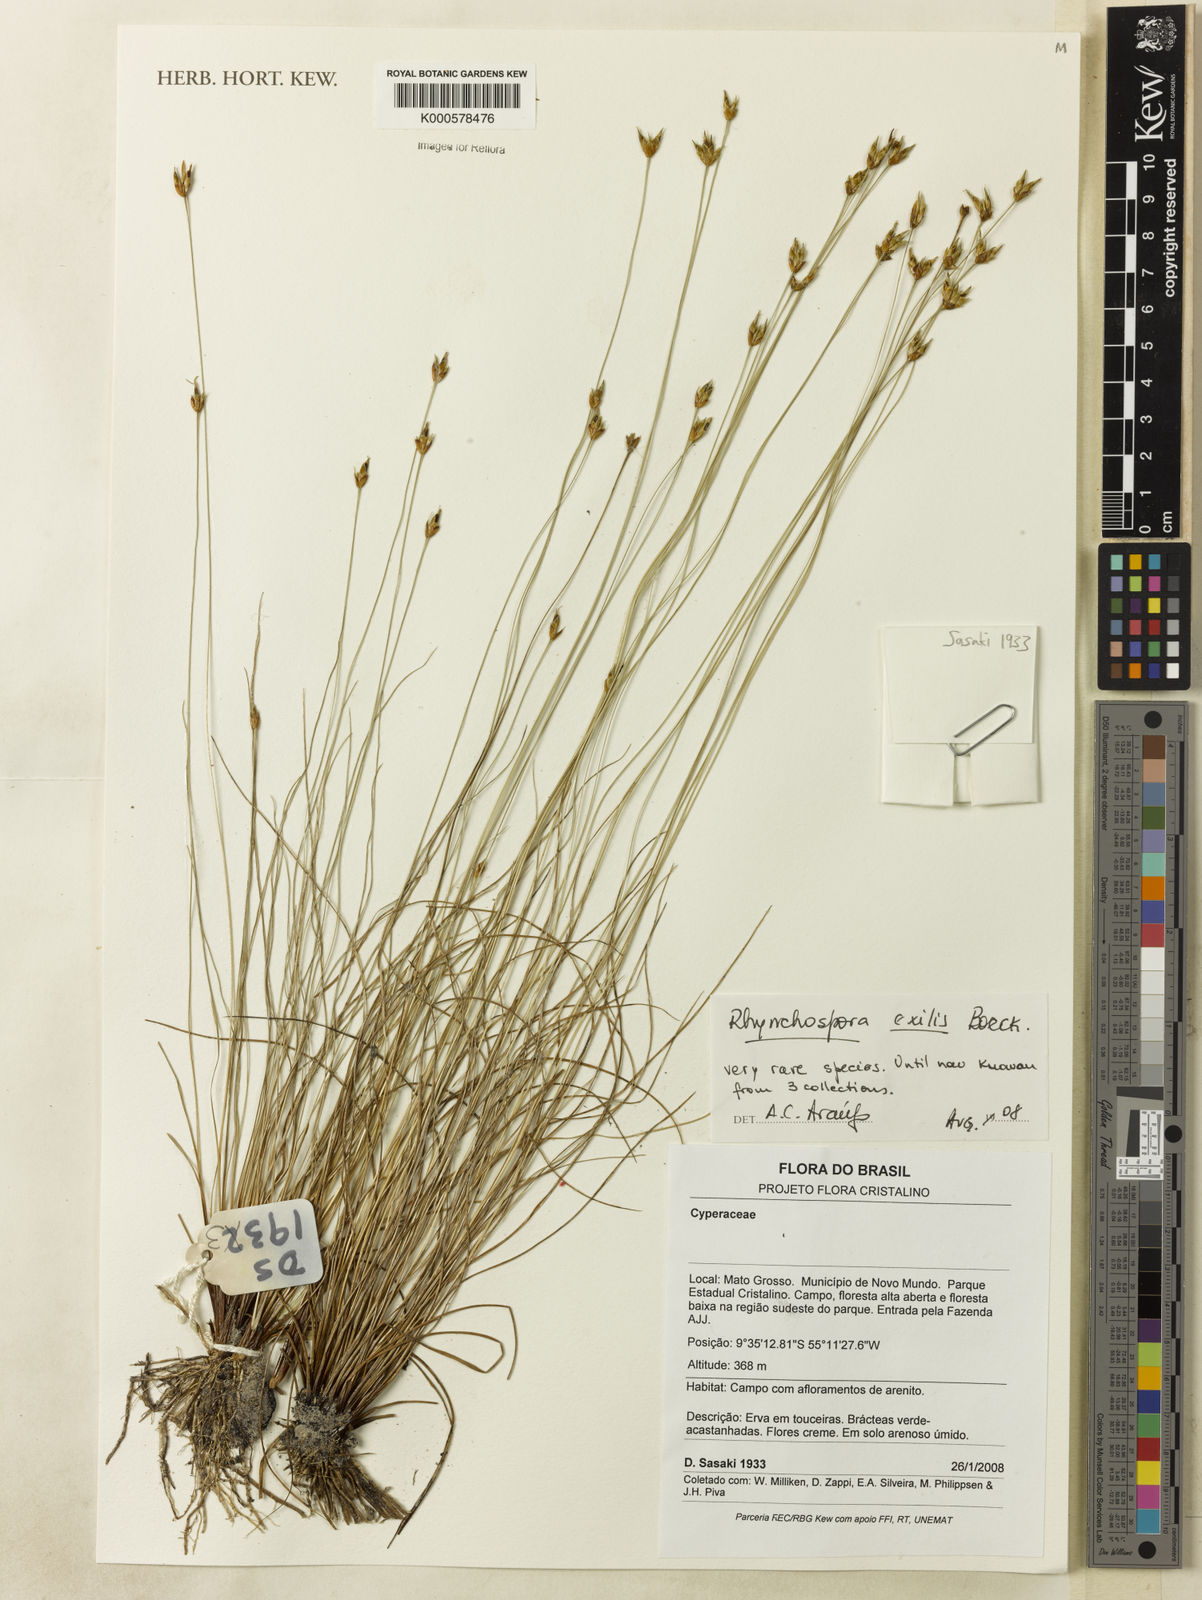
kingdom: Plantae
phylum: Tracheophyta
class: Liliopsida
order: Poales
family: Cyperaceae
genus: Rhynchospora
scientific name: Rhynchospora exilis
